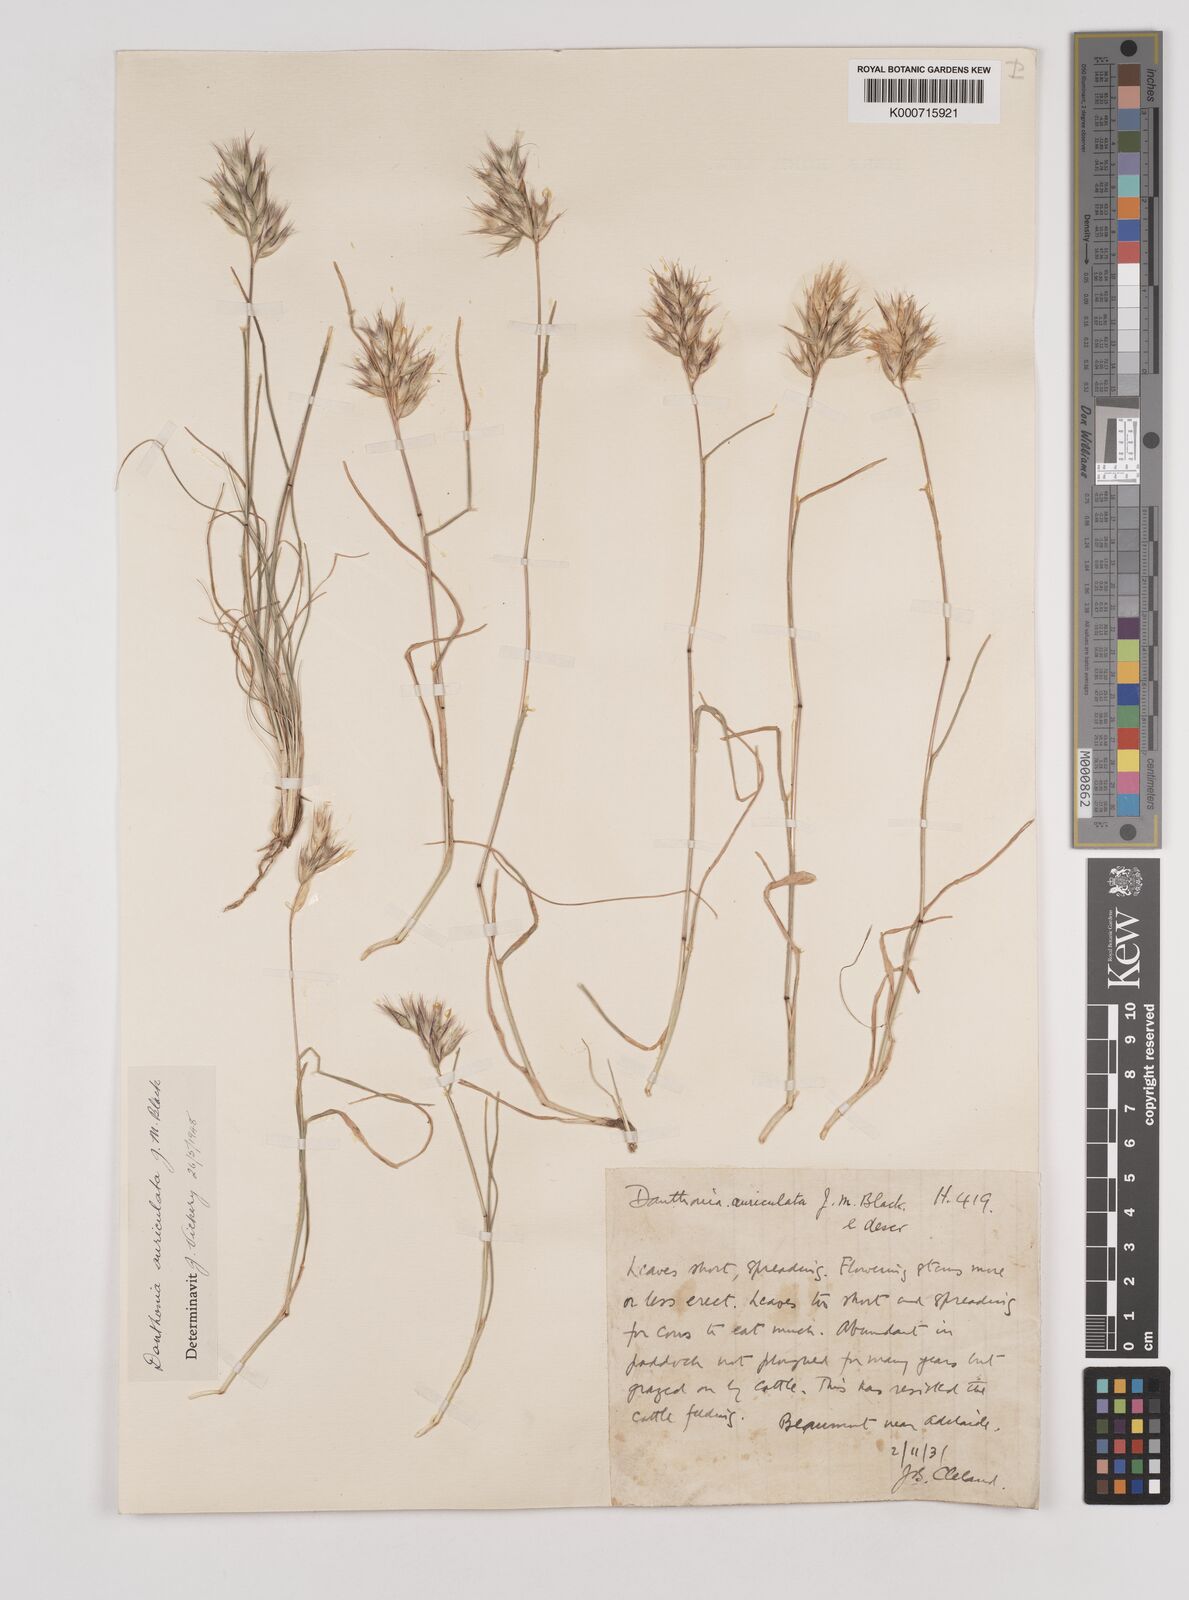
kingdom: Plantae
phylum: Tracheophyta
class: Liliopsida
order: Poales
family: Poaceae
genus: Rytidosperma
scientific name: Rytidosperma auriculatum
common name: Lobed wallaby grass
